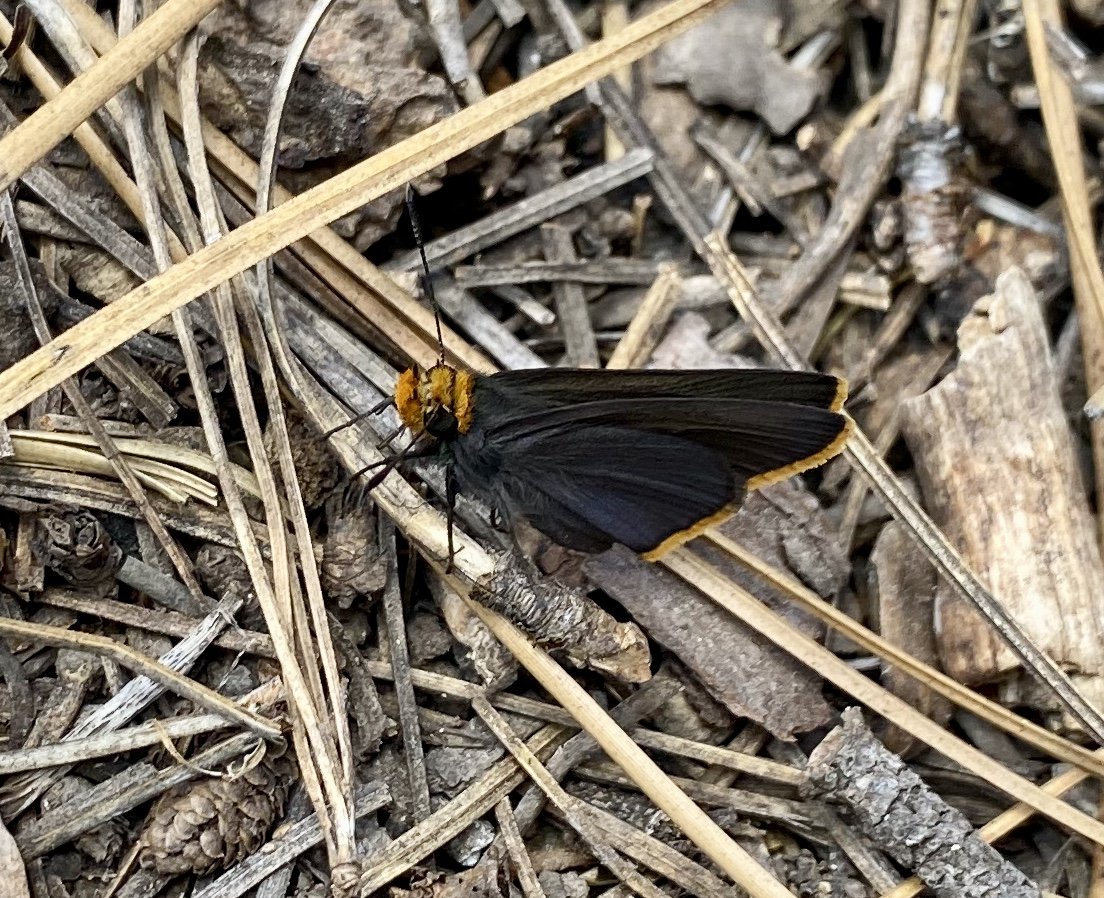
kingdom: Animalia
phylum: Arthropoda
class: Insecta
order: Lepidoptera
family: Hesperiidae
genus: Mastor
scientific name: Mastor fimbriata
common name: Orange-edged Roadside-Skipper
